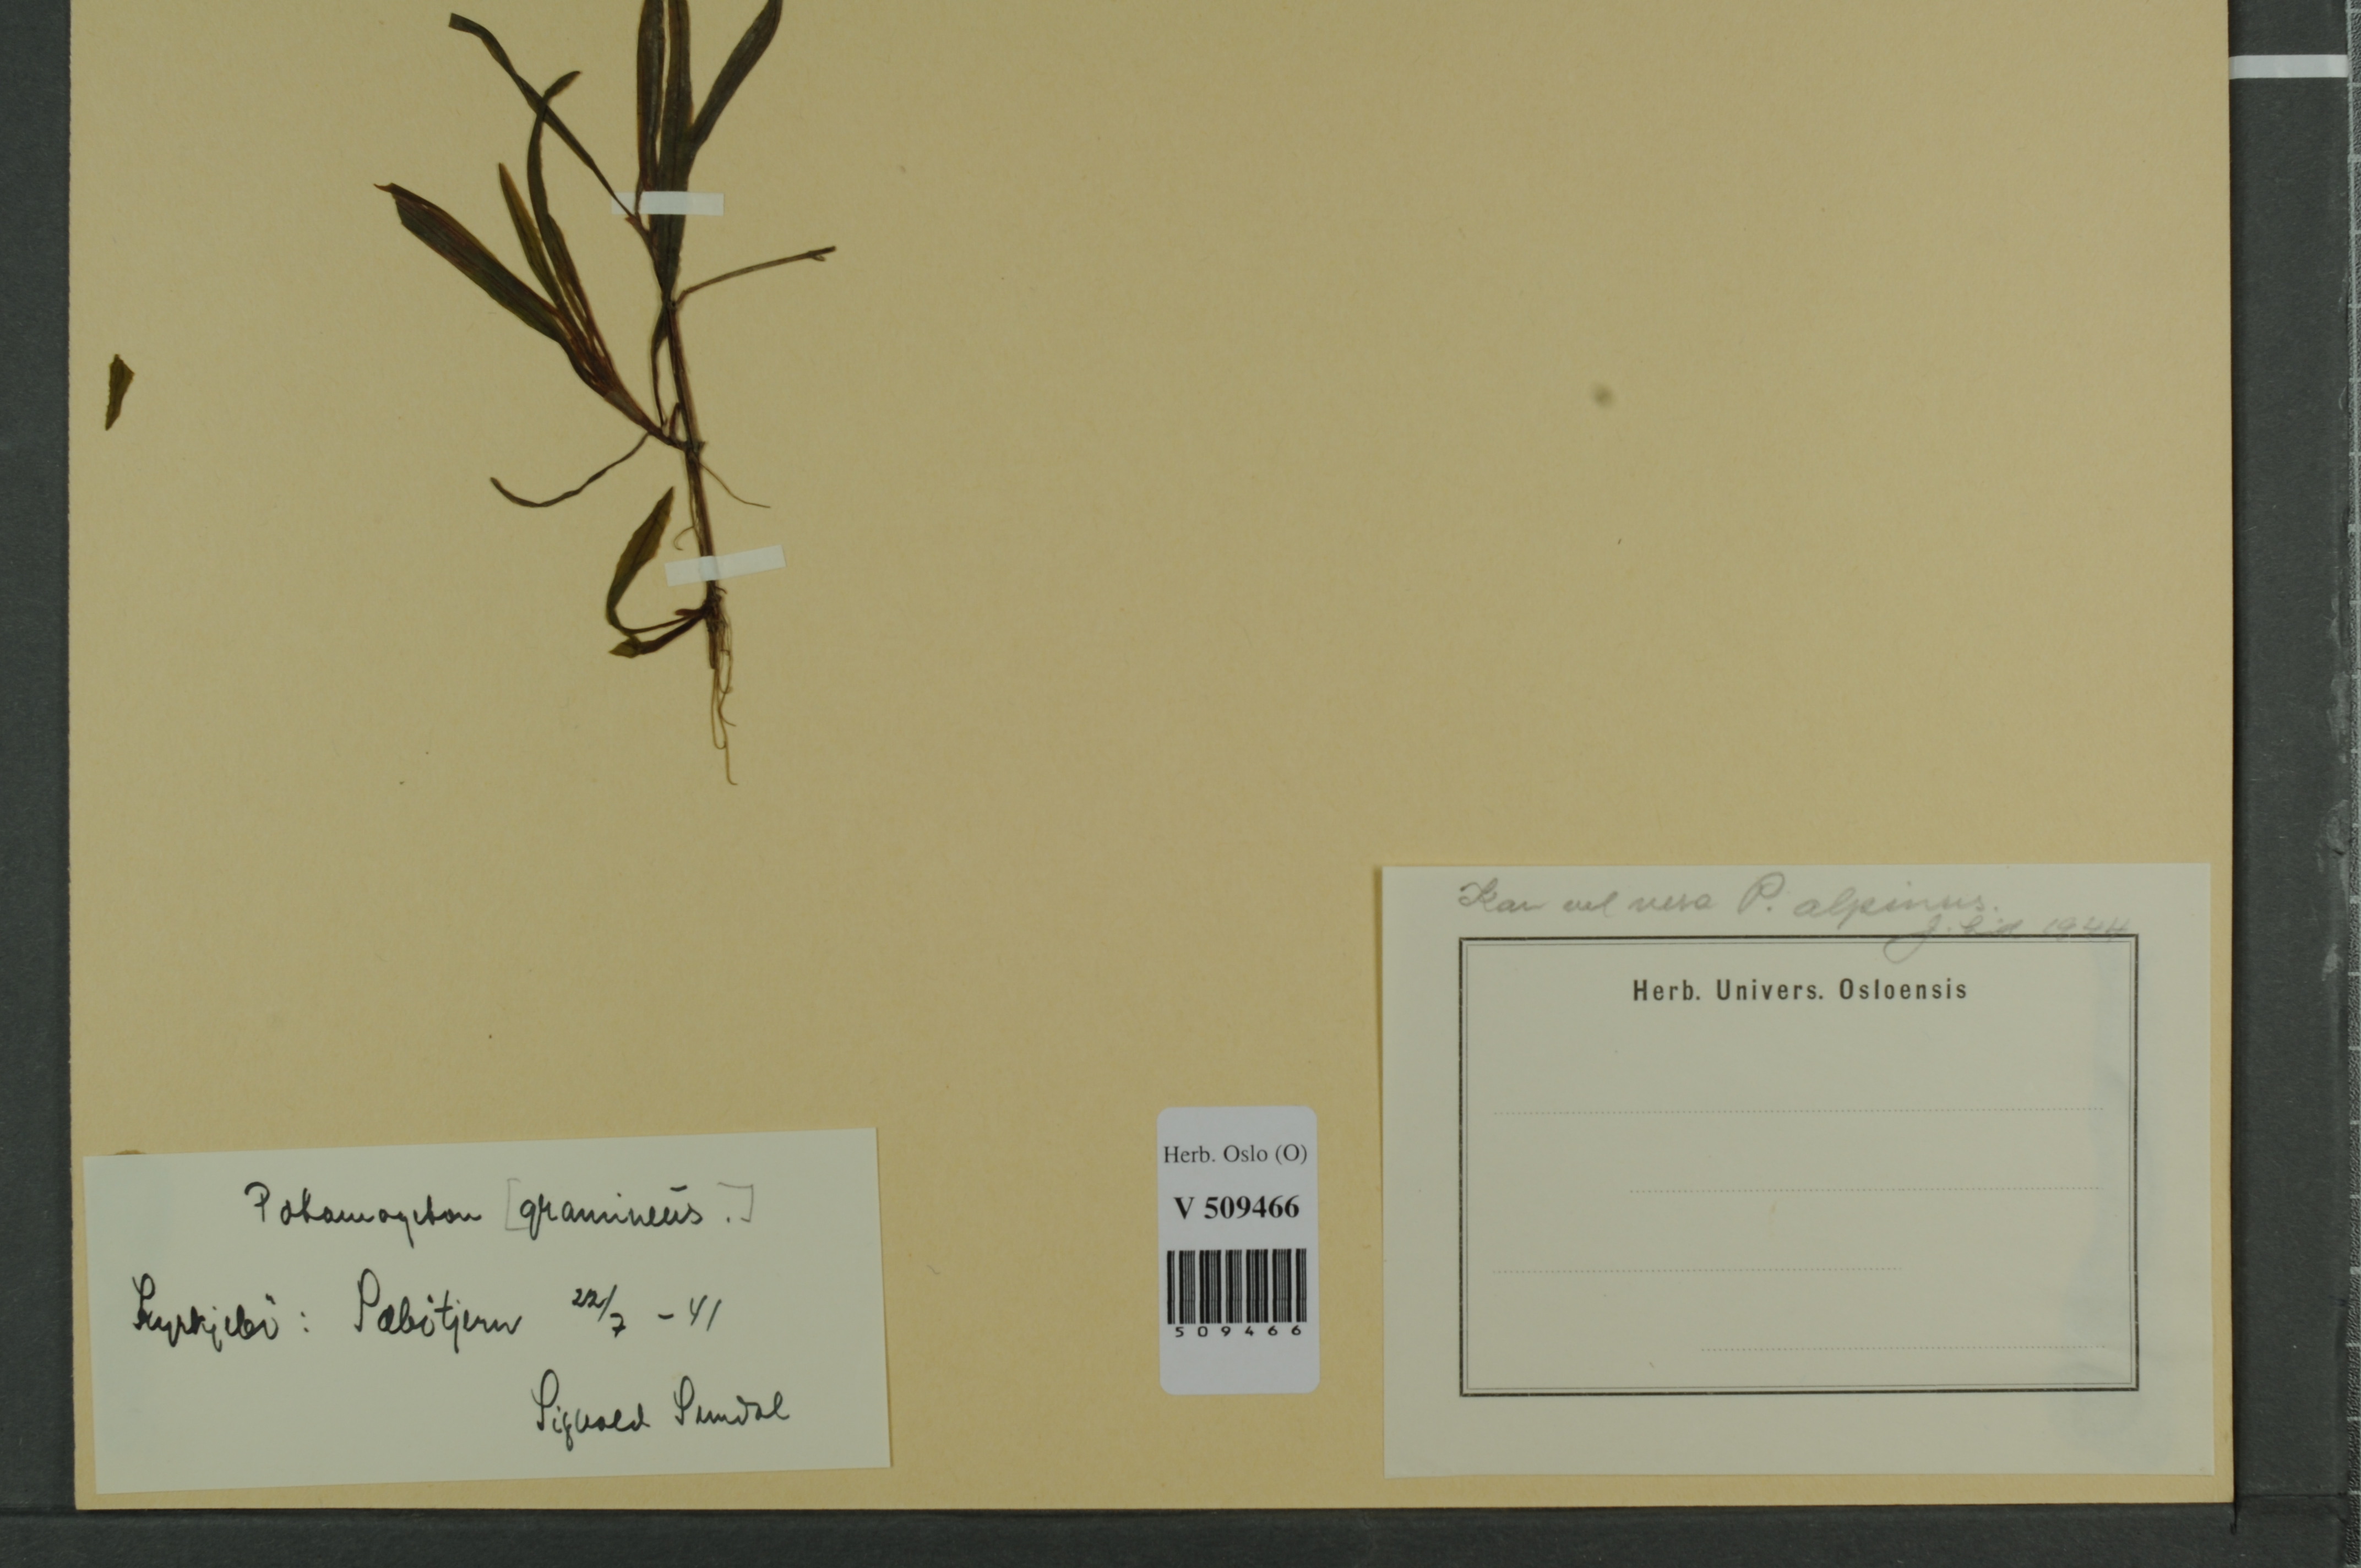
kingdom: Plantae
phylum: Tracheophyta
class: Liliopsida
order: Alismatales
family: Potamogetonaceae
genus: Potamogeton
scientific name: Potamogeton alpinus
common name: Red pondweed
